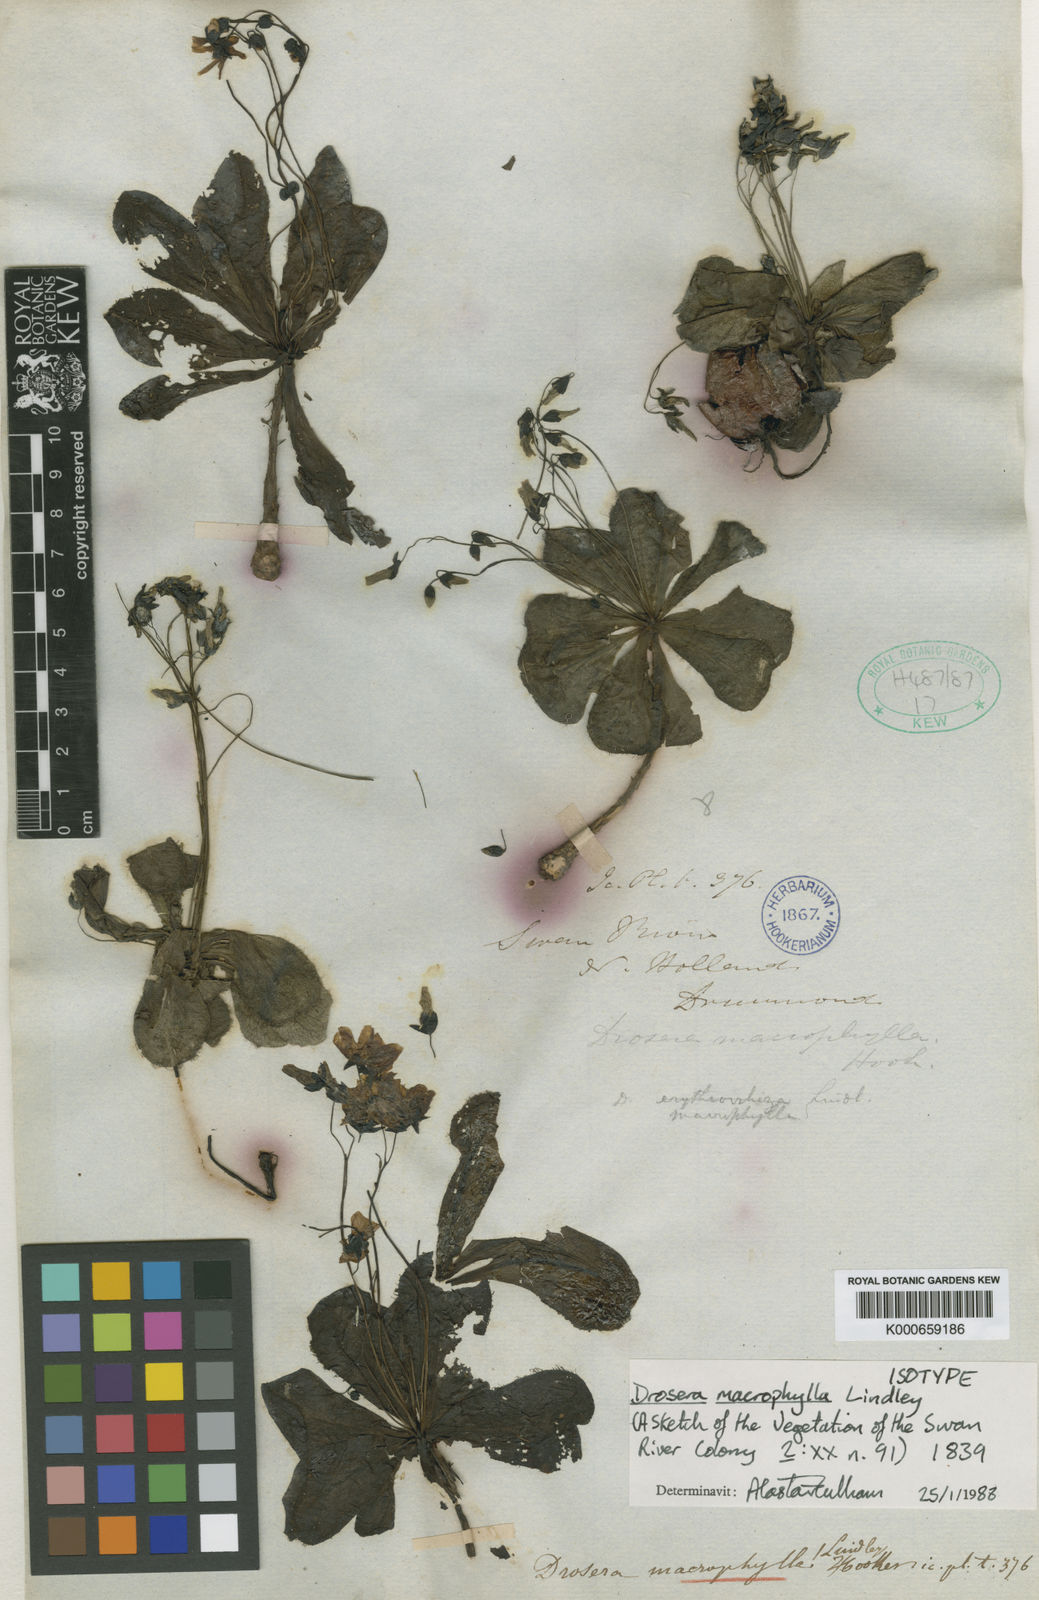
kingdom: Plantae
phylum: Tracheophyta
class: Magnoliopsida
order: Caryophyllales
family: Droseraceae
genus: Drosera
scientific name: Drosera macrophylla
